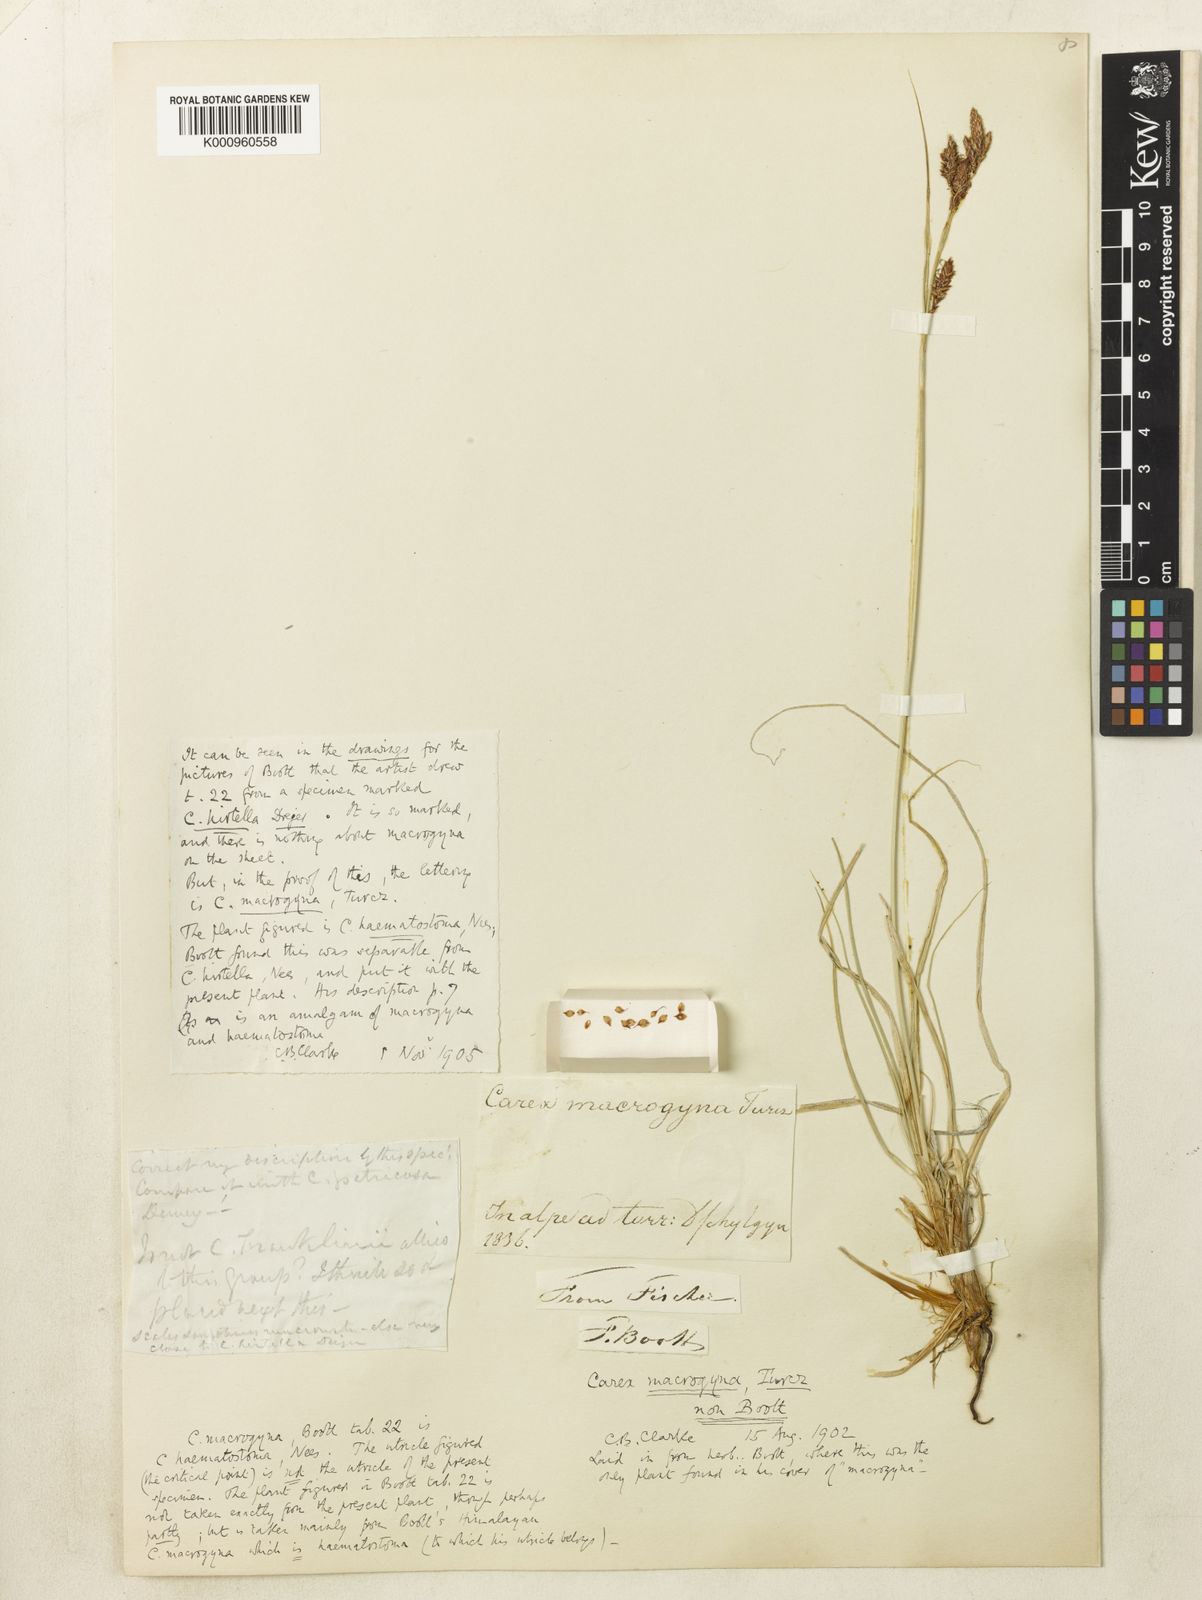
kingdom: Plantae
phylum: Tracheophyta
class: Liliopsida
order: Poales
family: Cyperaceae
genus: Carex
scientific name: Carex
